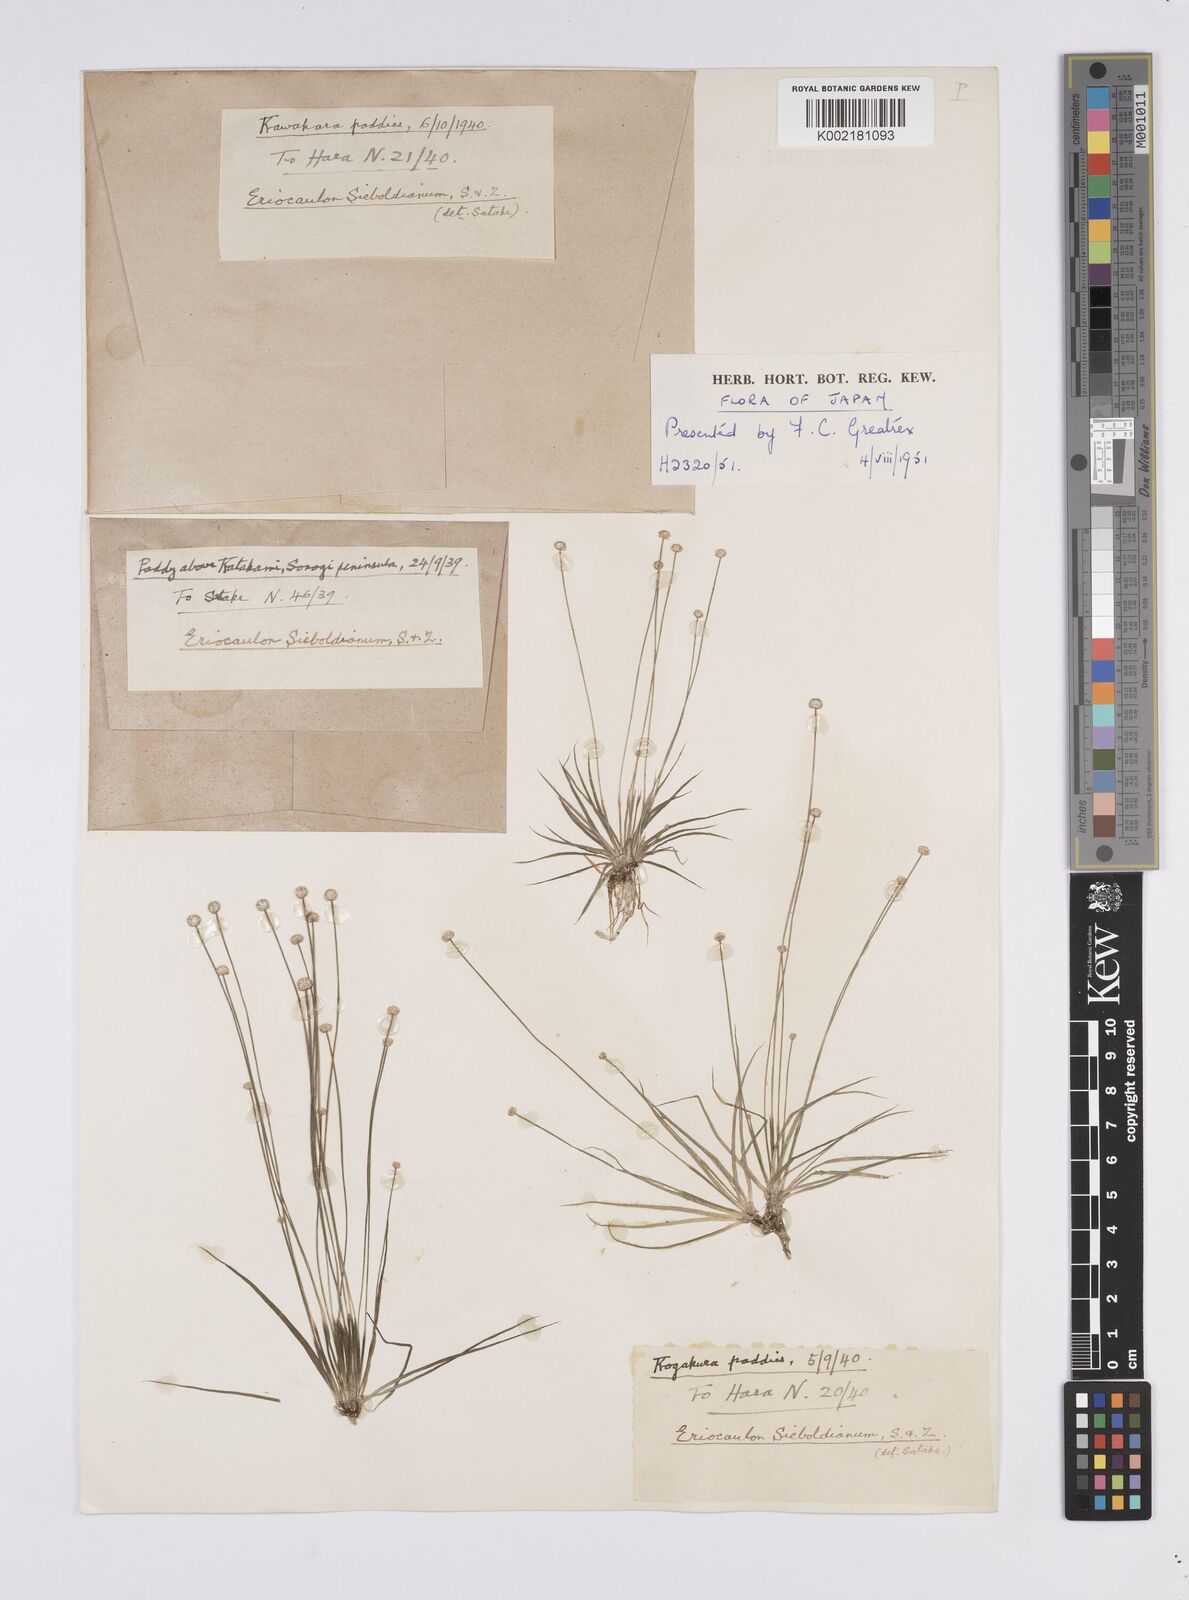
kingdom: Plantae
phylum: Tracheophyta
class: Liliopsida
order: Poales
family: Eriocaulaceae
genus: Eriocaulon
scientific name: Eriocaulon cinereum
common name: Ashy pipewort
